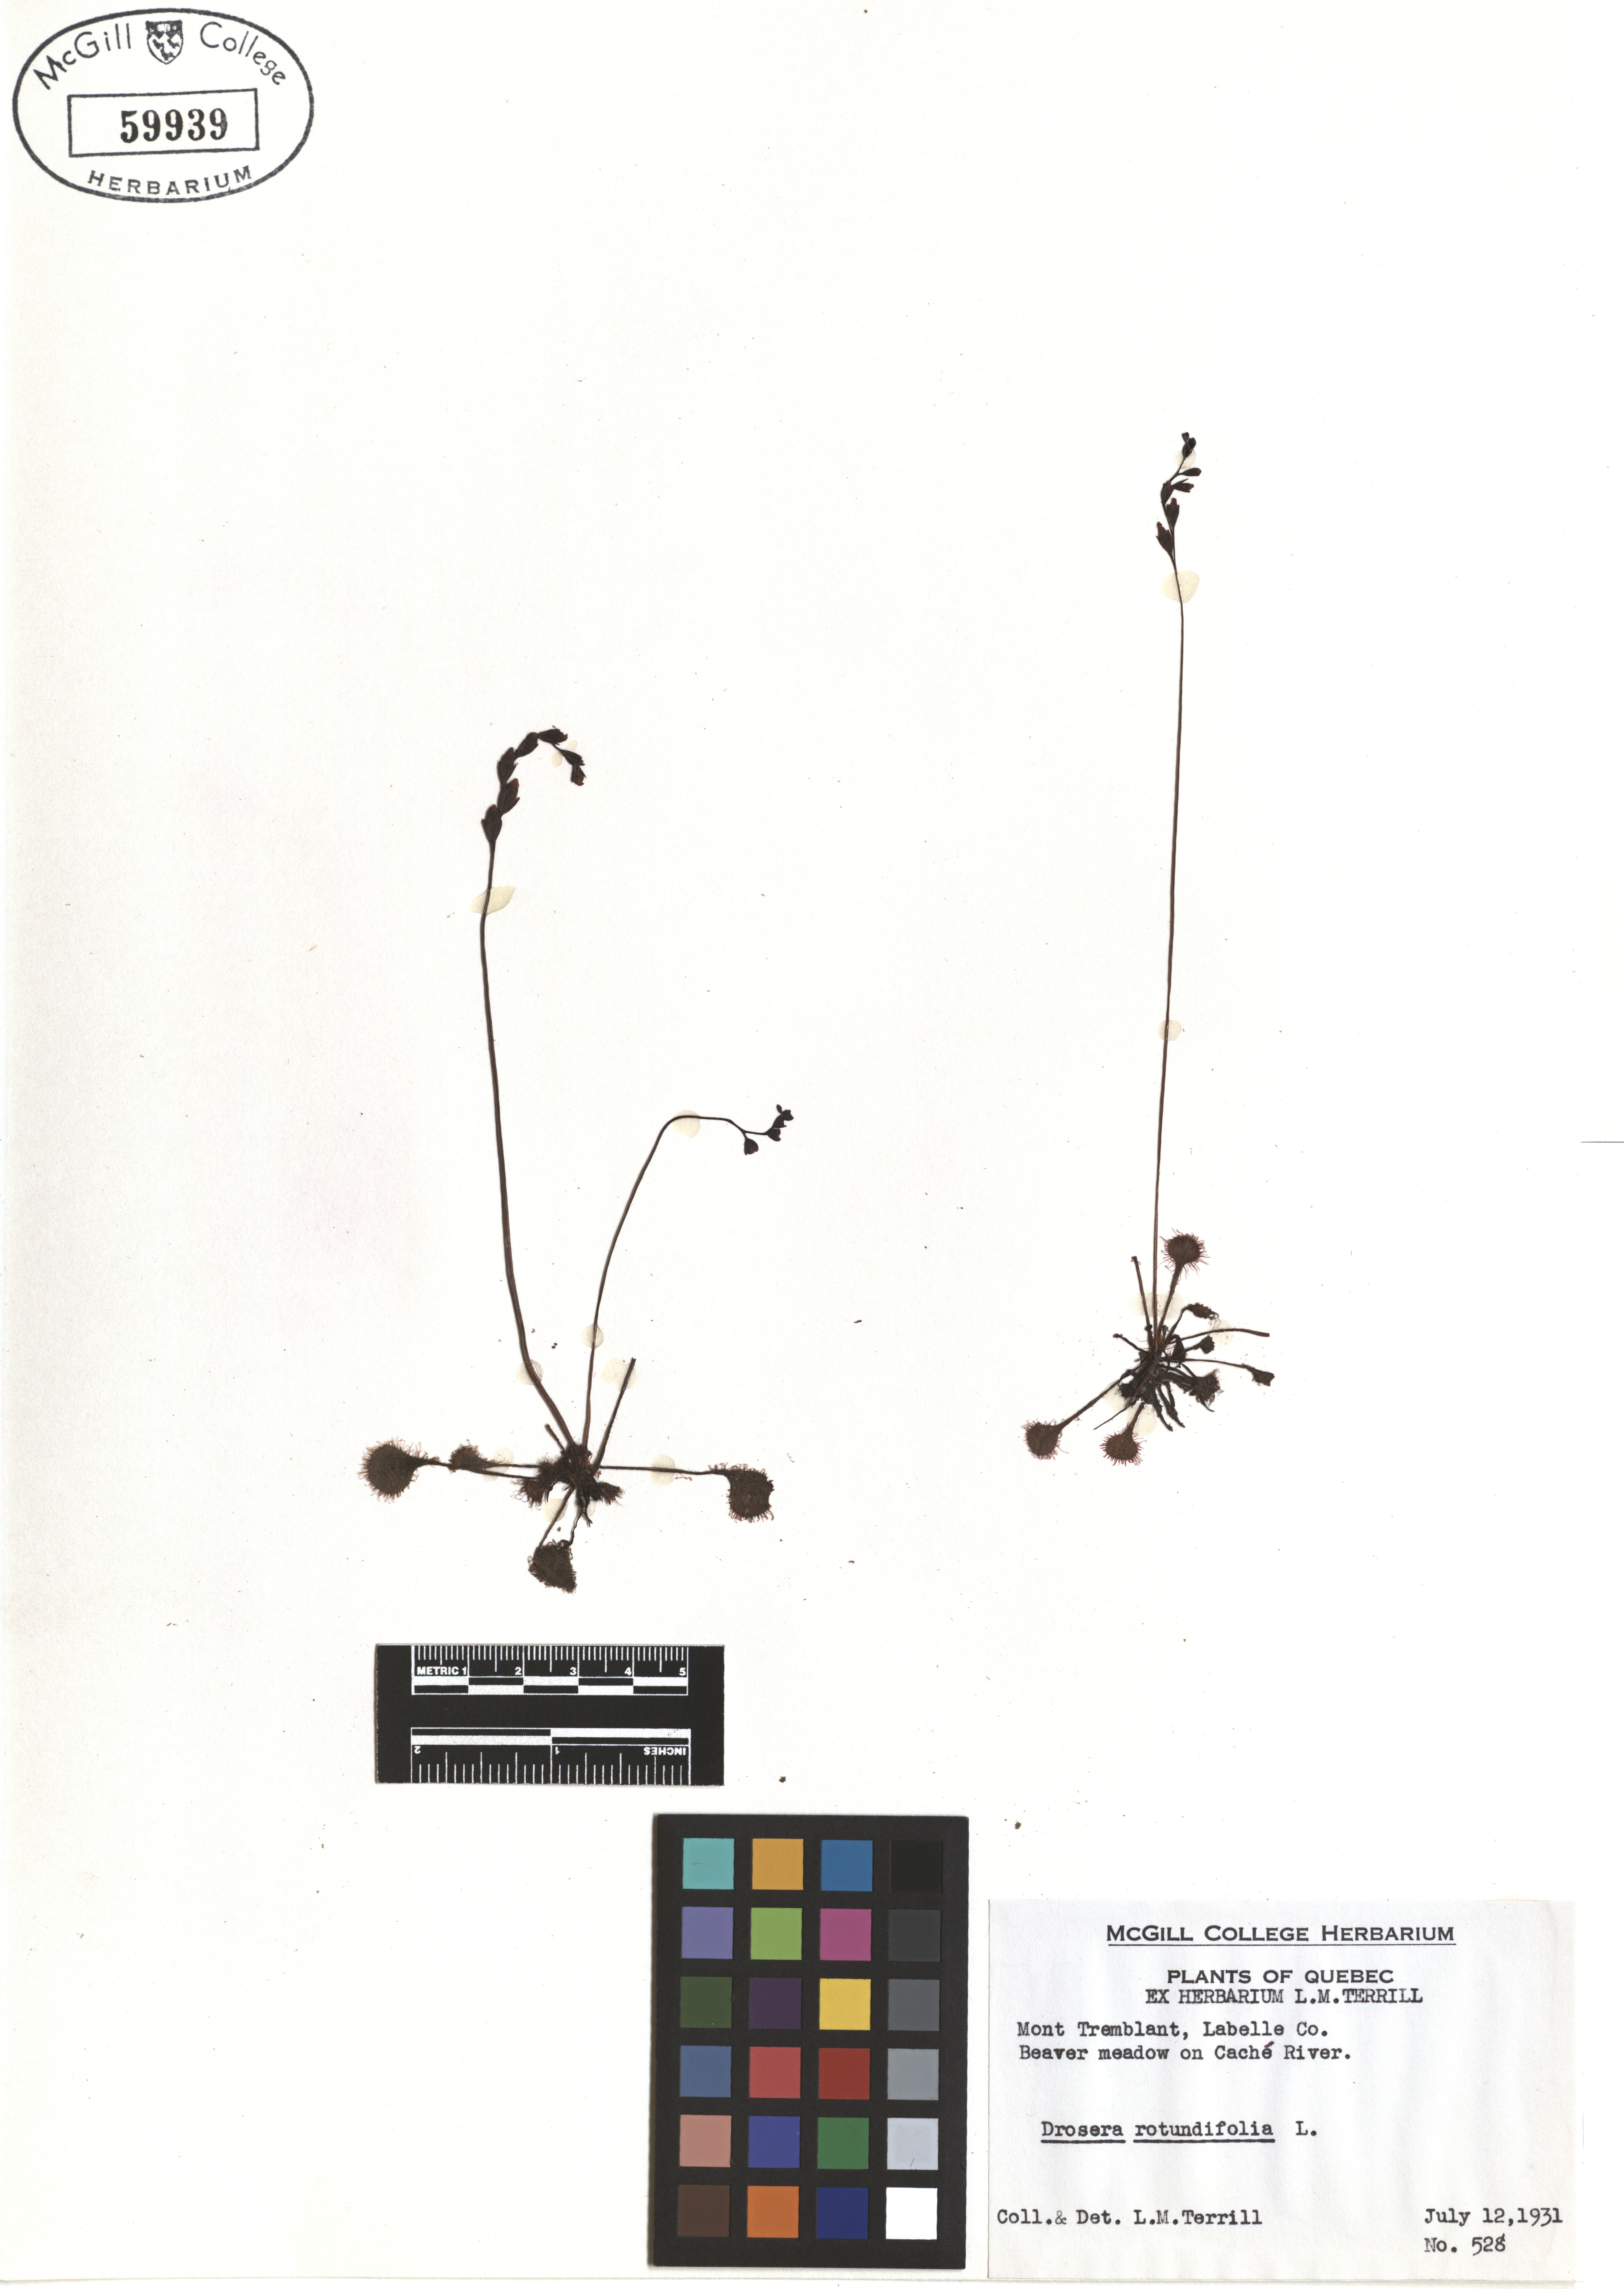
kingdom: Plantae
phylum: Tracheophyta
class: Magnoliopsida
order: Caryophyllales
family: Droseraceae
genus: Drosera
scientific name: Drosera rotundifolia
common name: Round-leaved sundew
